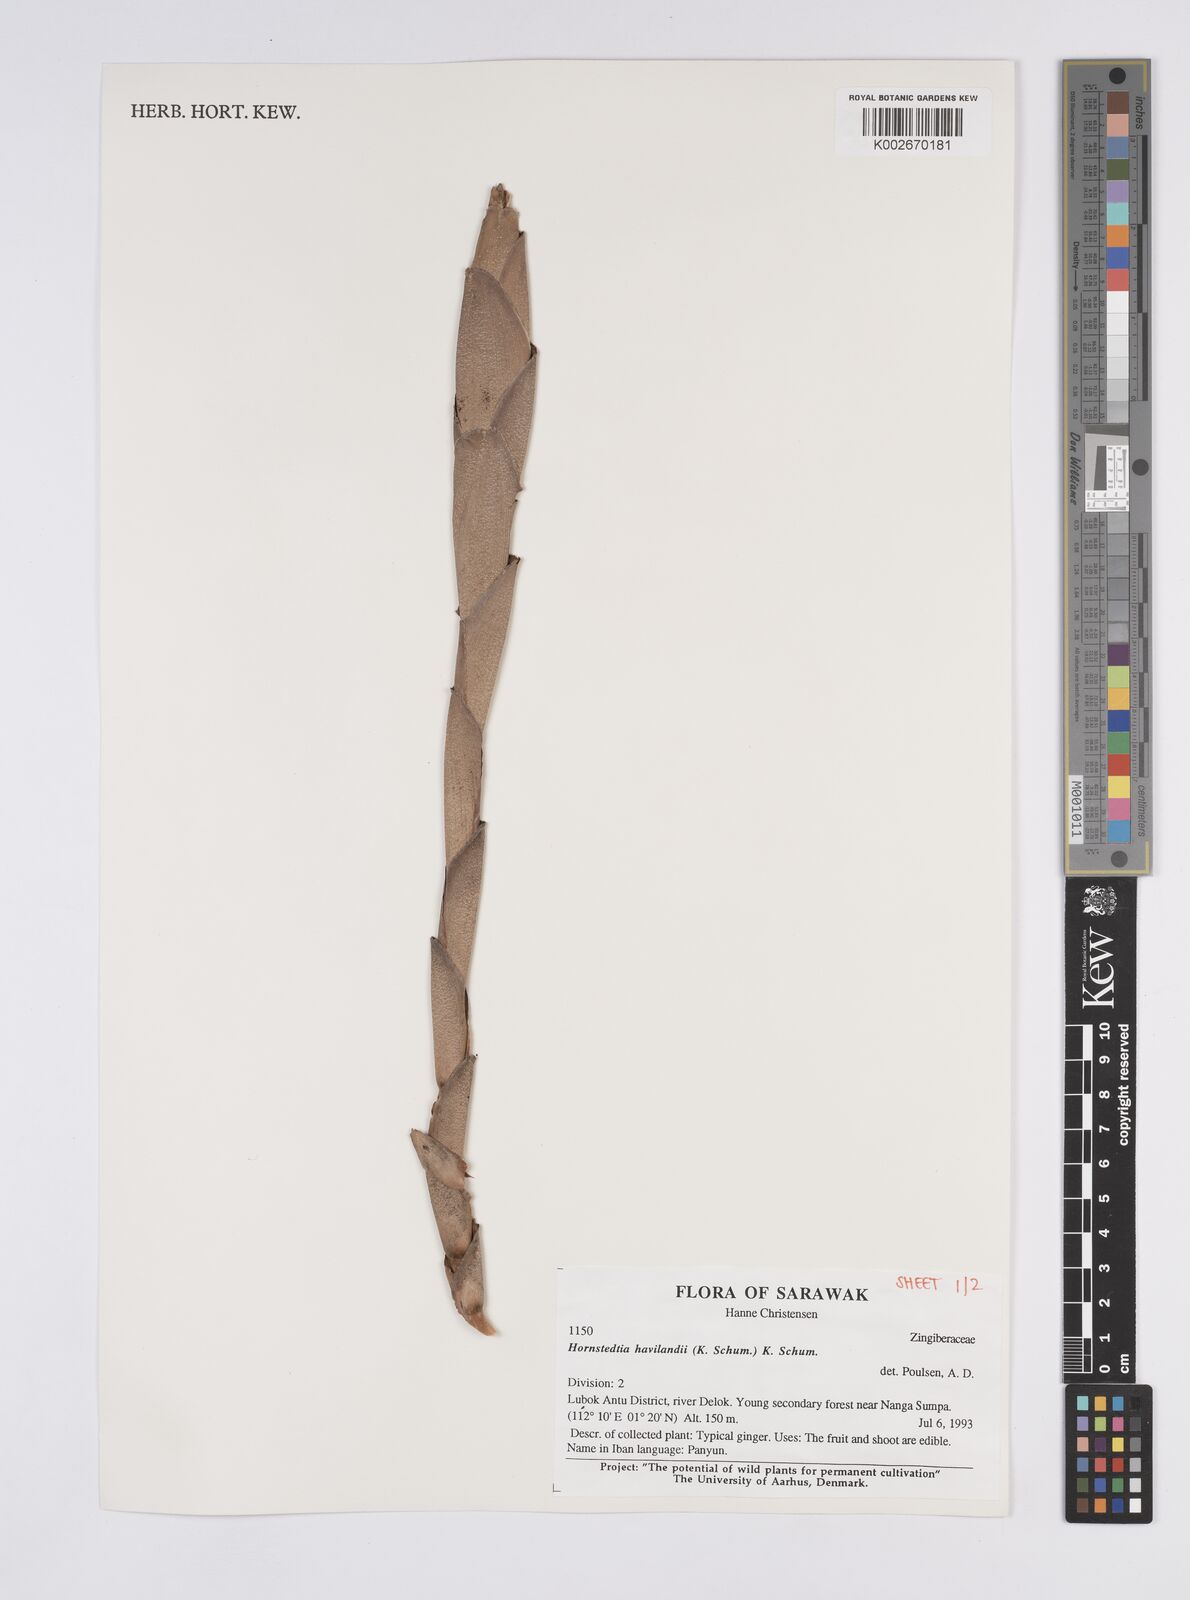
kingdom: Plantae
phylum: Tracheophyta
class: Liliopsida
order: Zingiberales
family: Zingiberaceae
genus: Hornstedtia
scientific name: Hornstedtia havilandii
